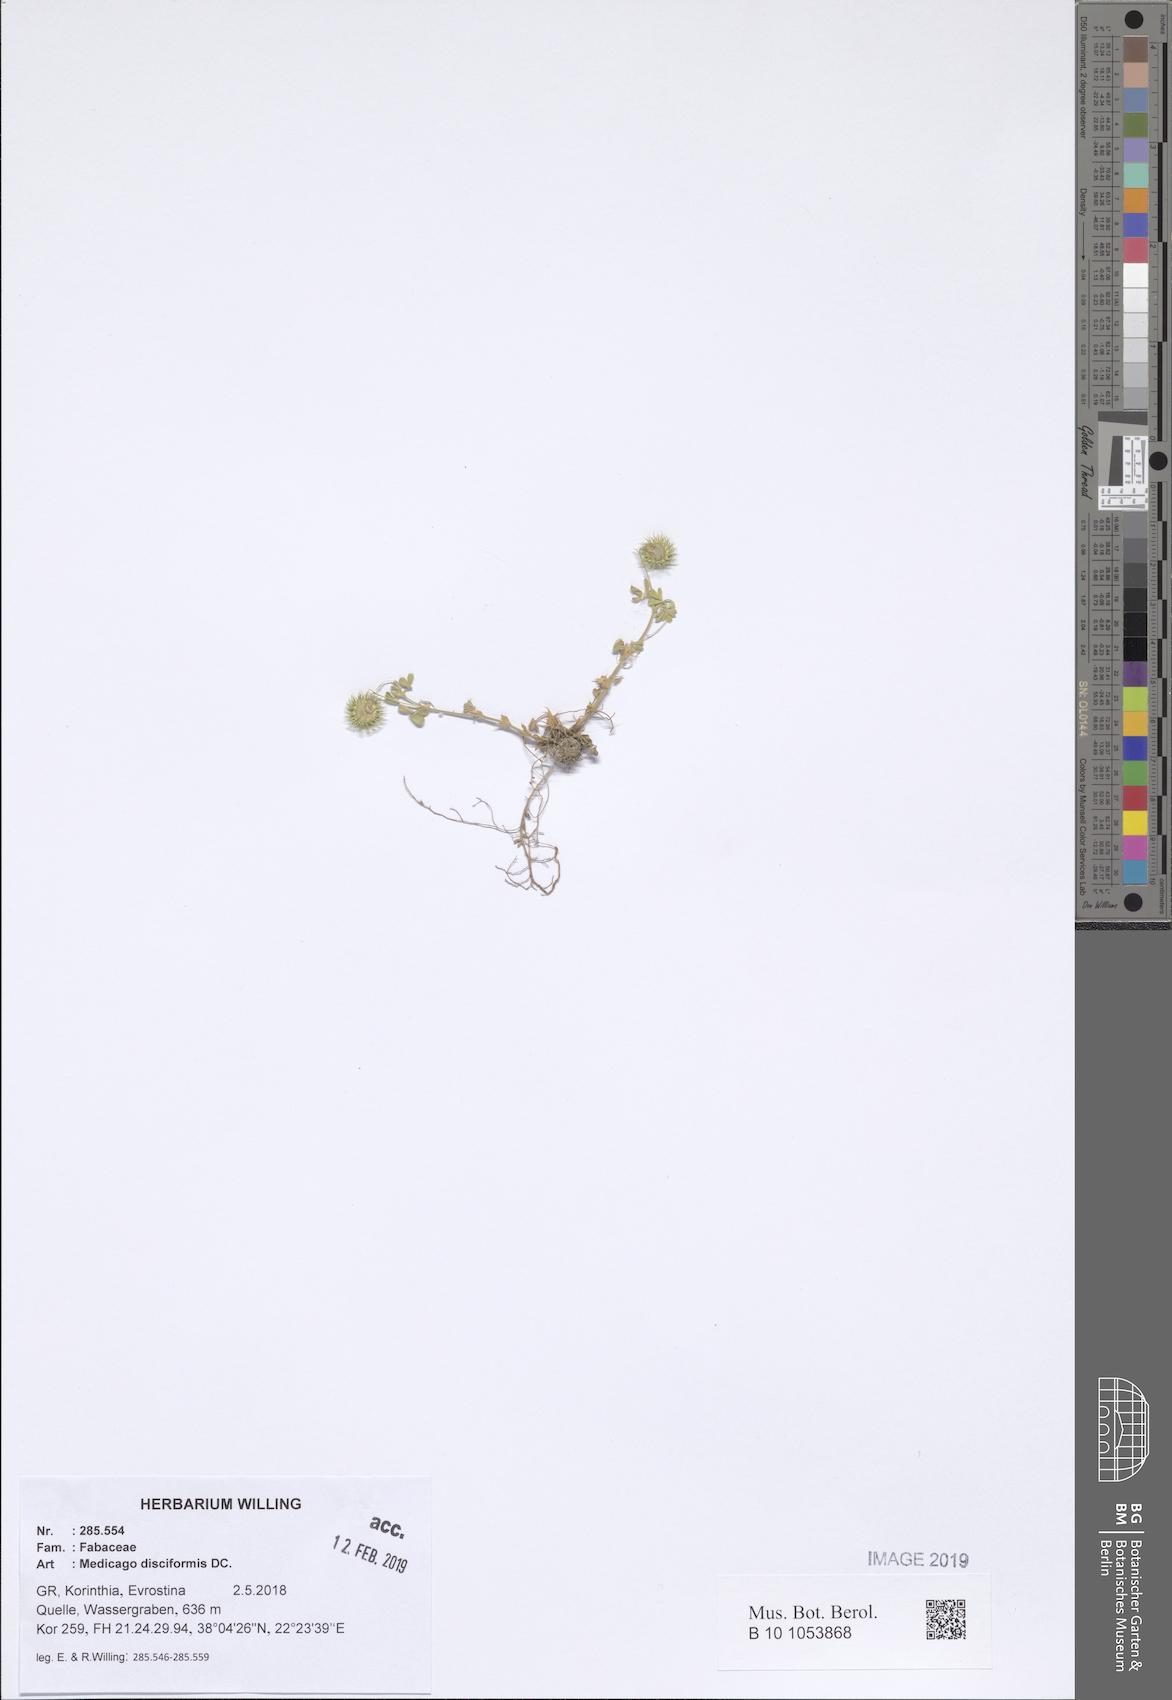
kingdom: Plantae
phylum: Tracheophyta
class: Magnoliopsida
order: Fabales
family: Fabaceae
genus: Medicago
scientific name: Medicago disciformis
